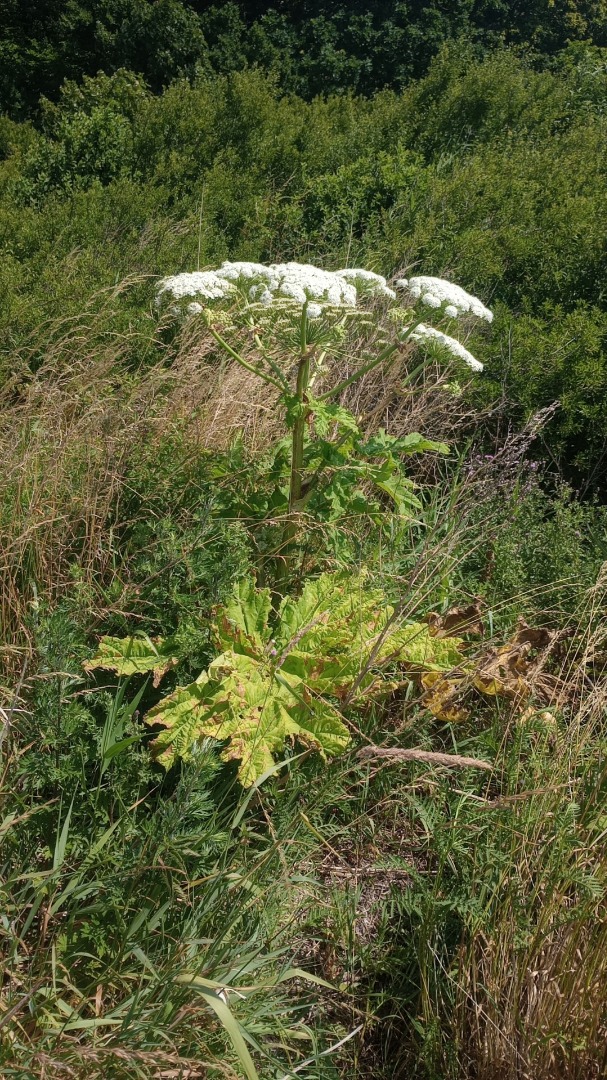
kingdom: Plantae
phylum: Tracheophyta
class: Magnoliopsida
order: Apiales
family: Apiaceae
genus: Heracleum
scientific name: Heracleum mantegazzianum
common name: Kæmpe-bjørneklo
